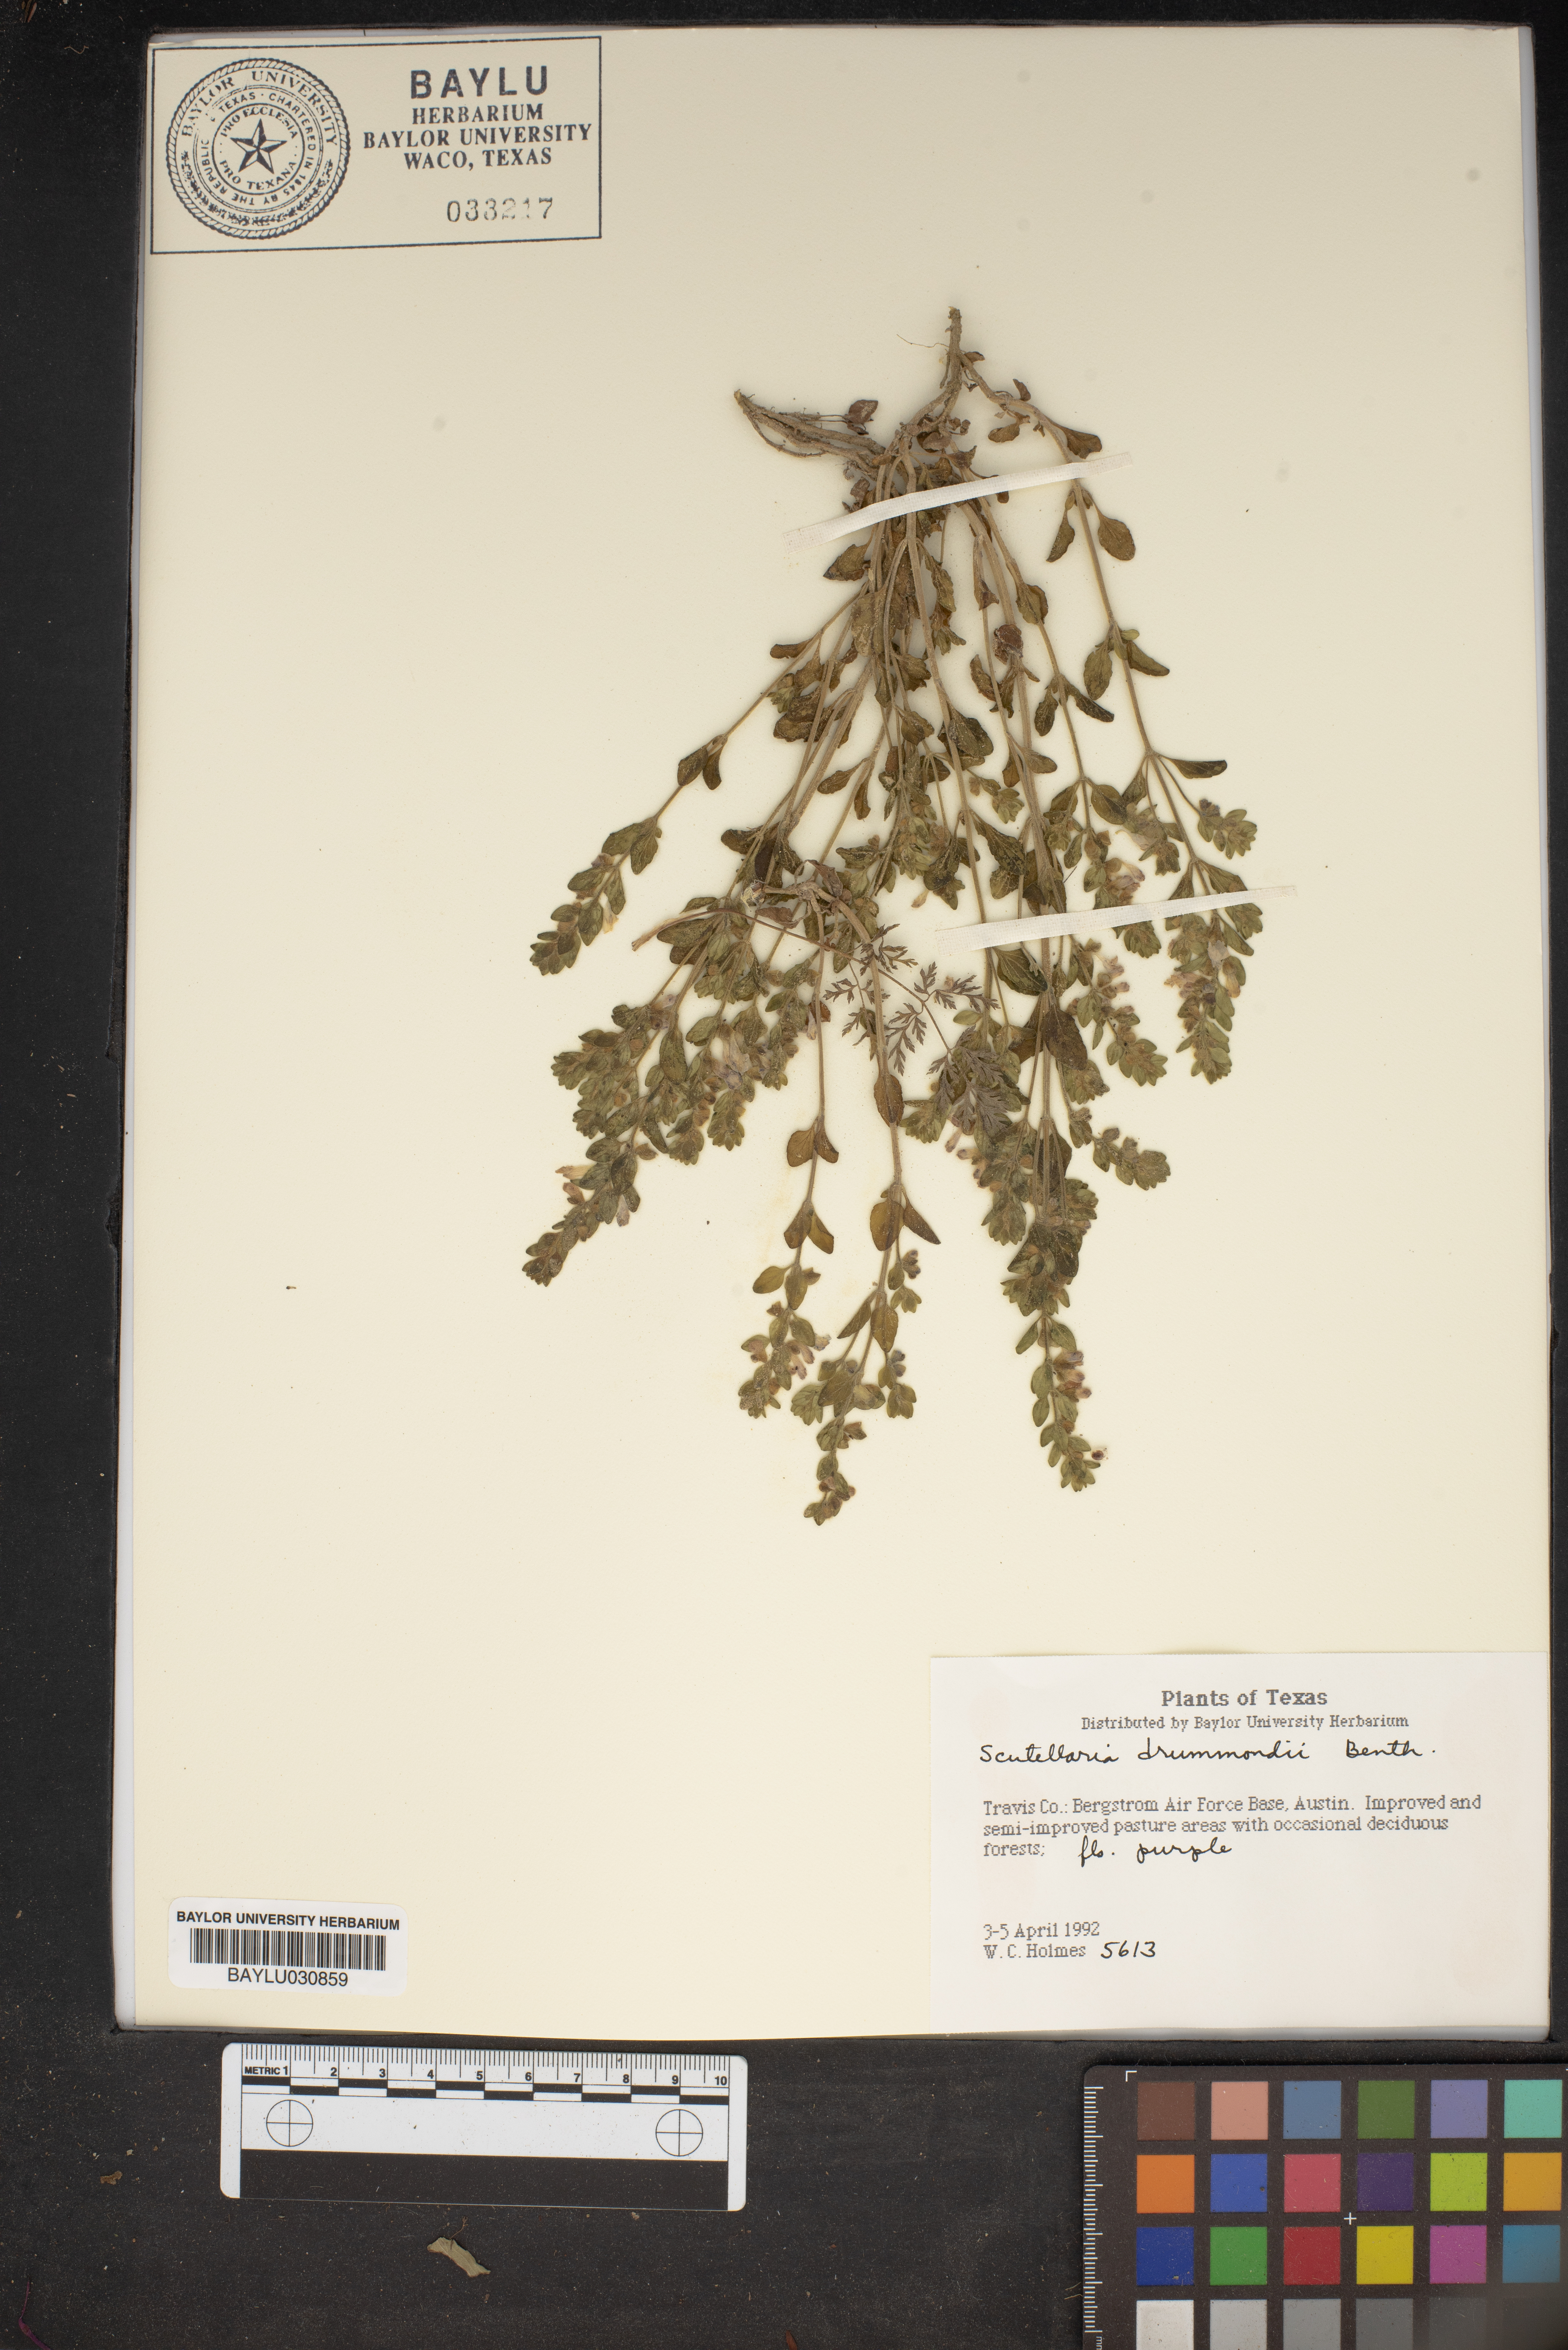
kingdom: Plantae
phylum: Tracheophyta
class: Magnoliopsida
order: Lamiales
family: Lamiaceae
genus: Scutellaria
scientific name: Scutellaria drummondii
